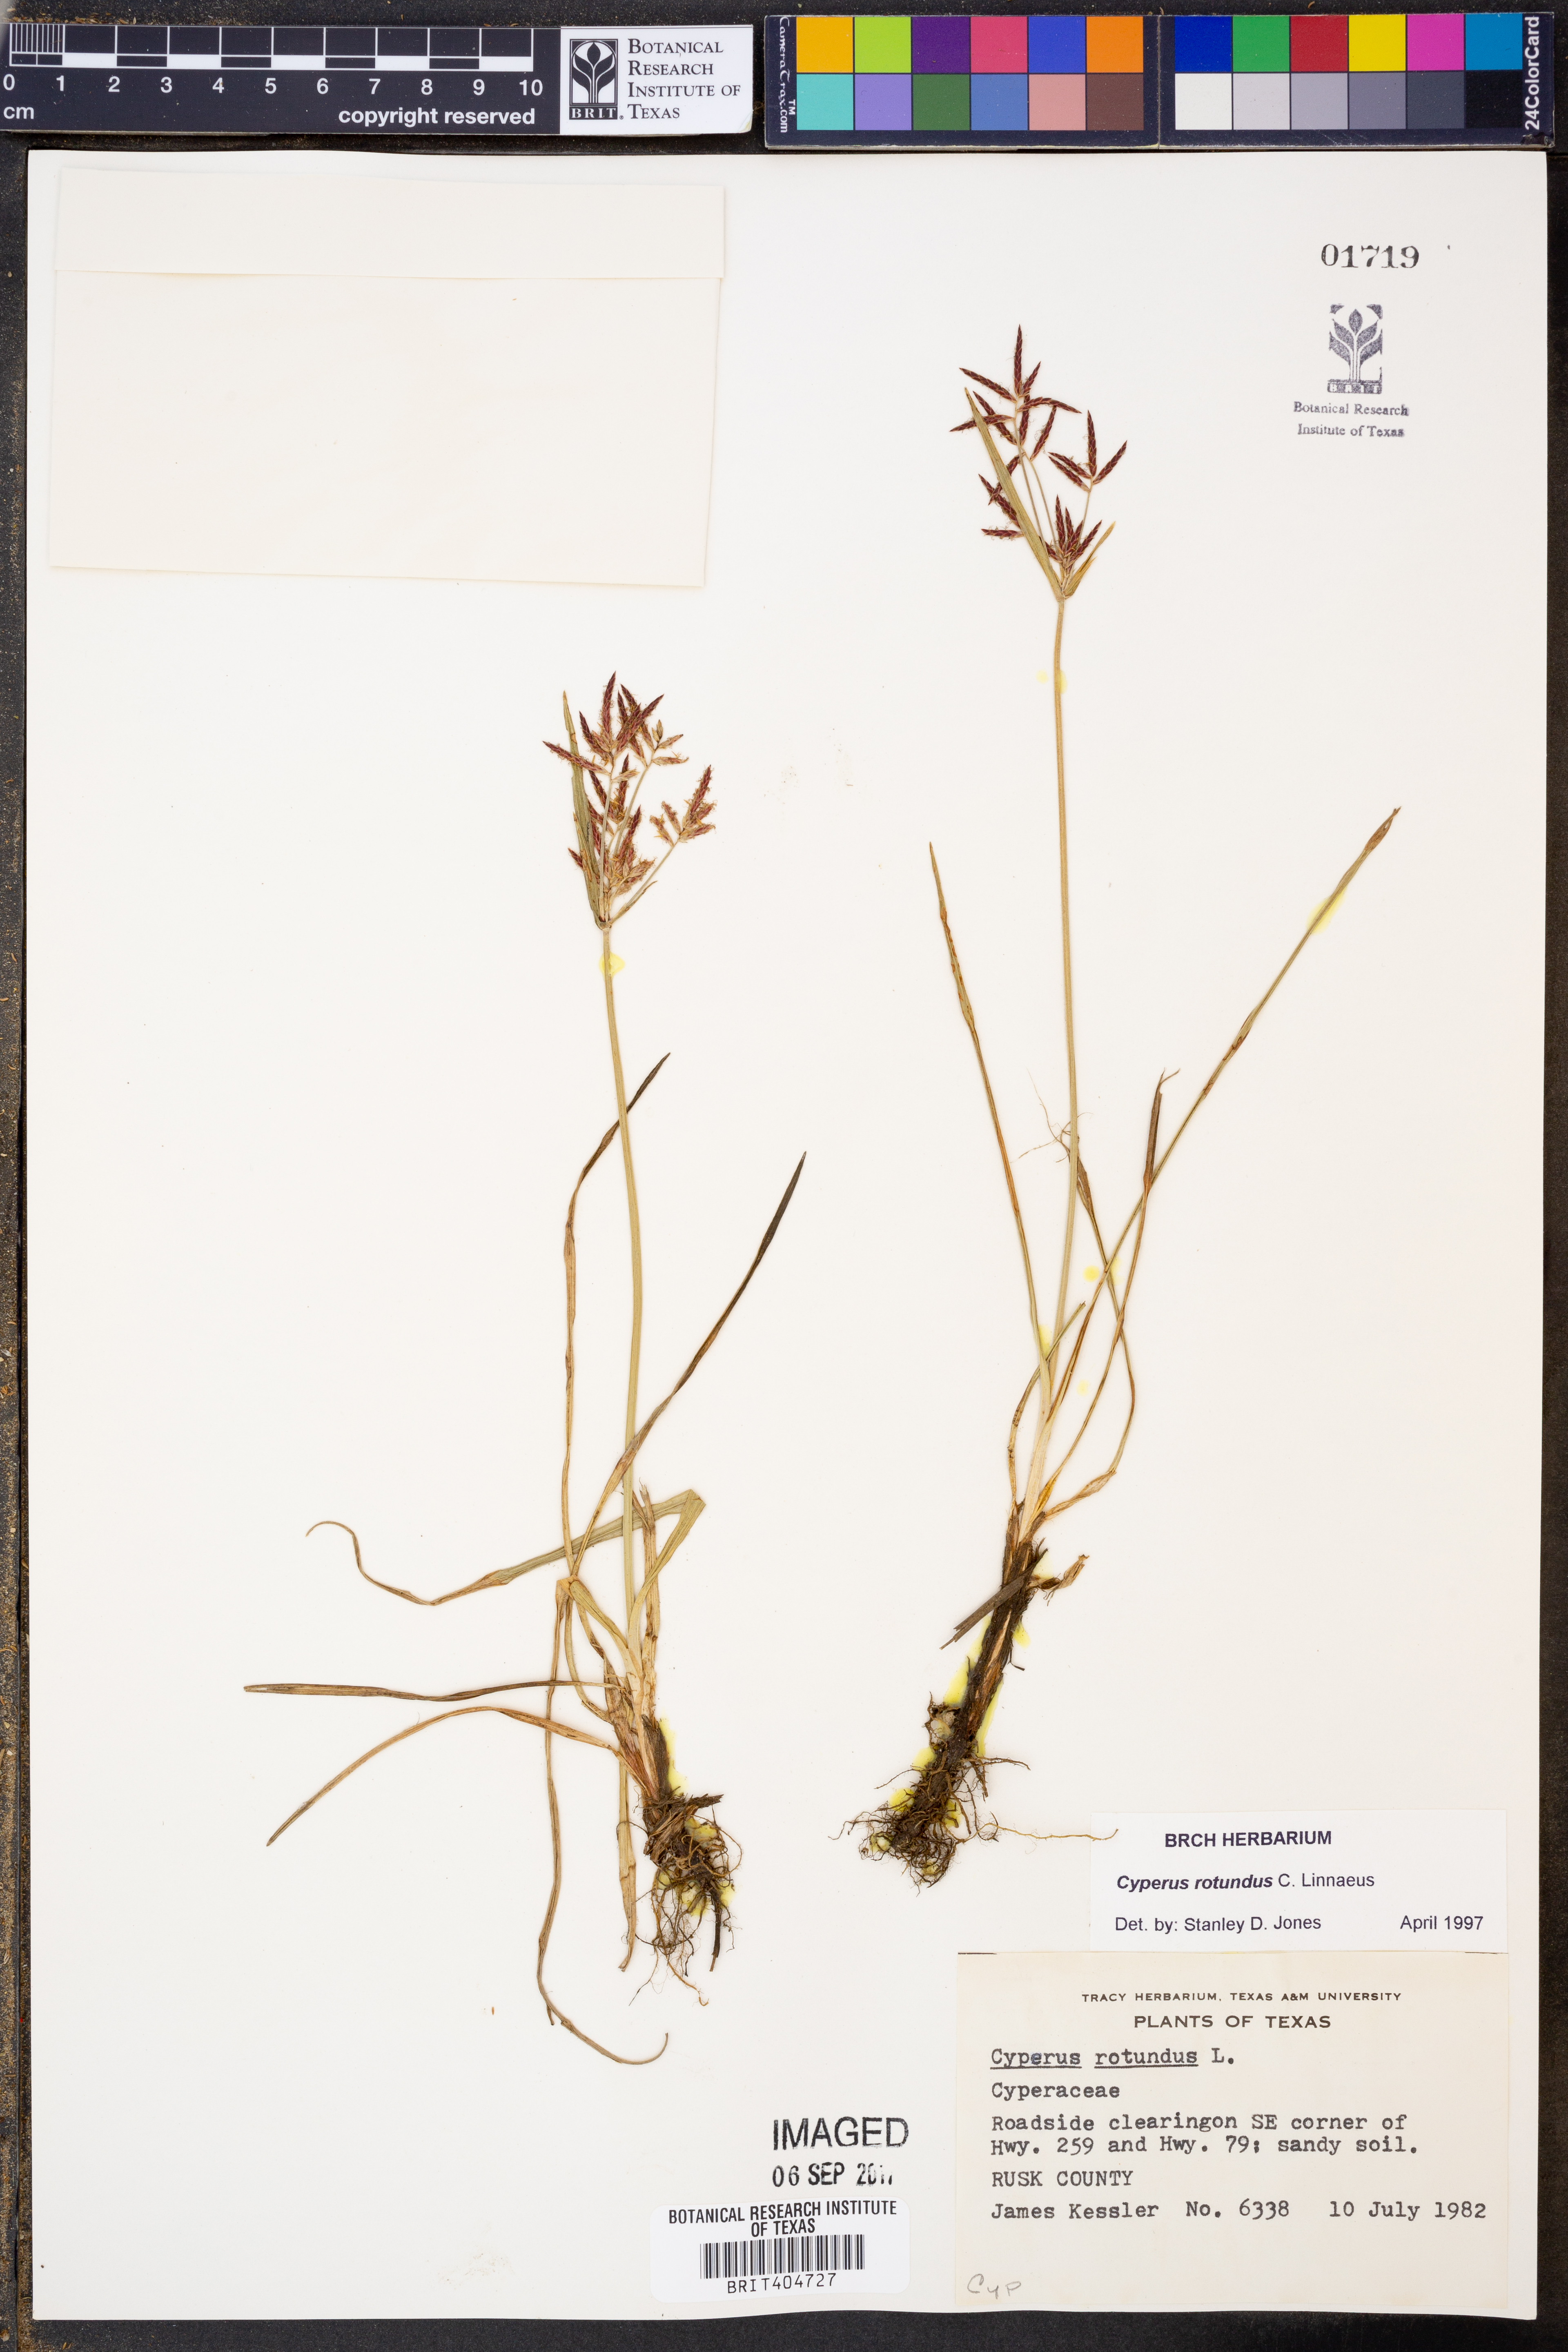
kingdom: Plantae
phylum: Tracheophyta
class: Liliopsida
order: Poales
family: Cyperaceae
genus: Cyperus
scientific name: Cyperus rotundus
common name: Nutgrass
